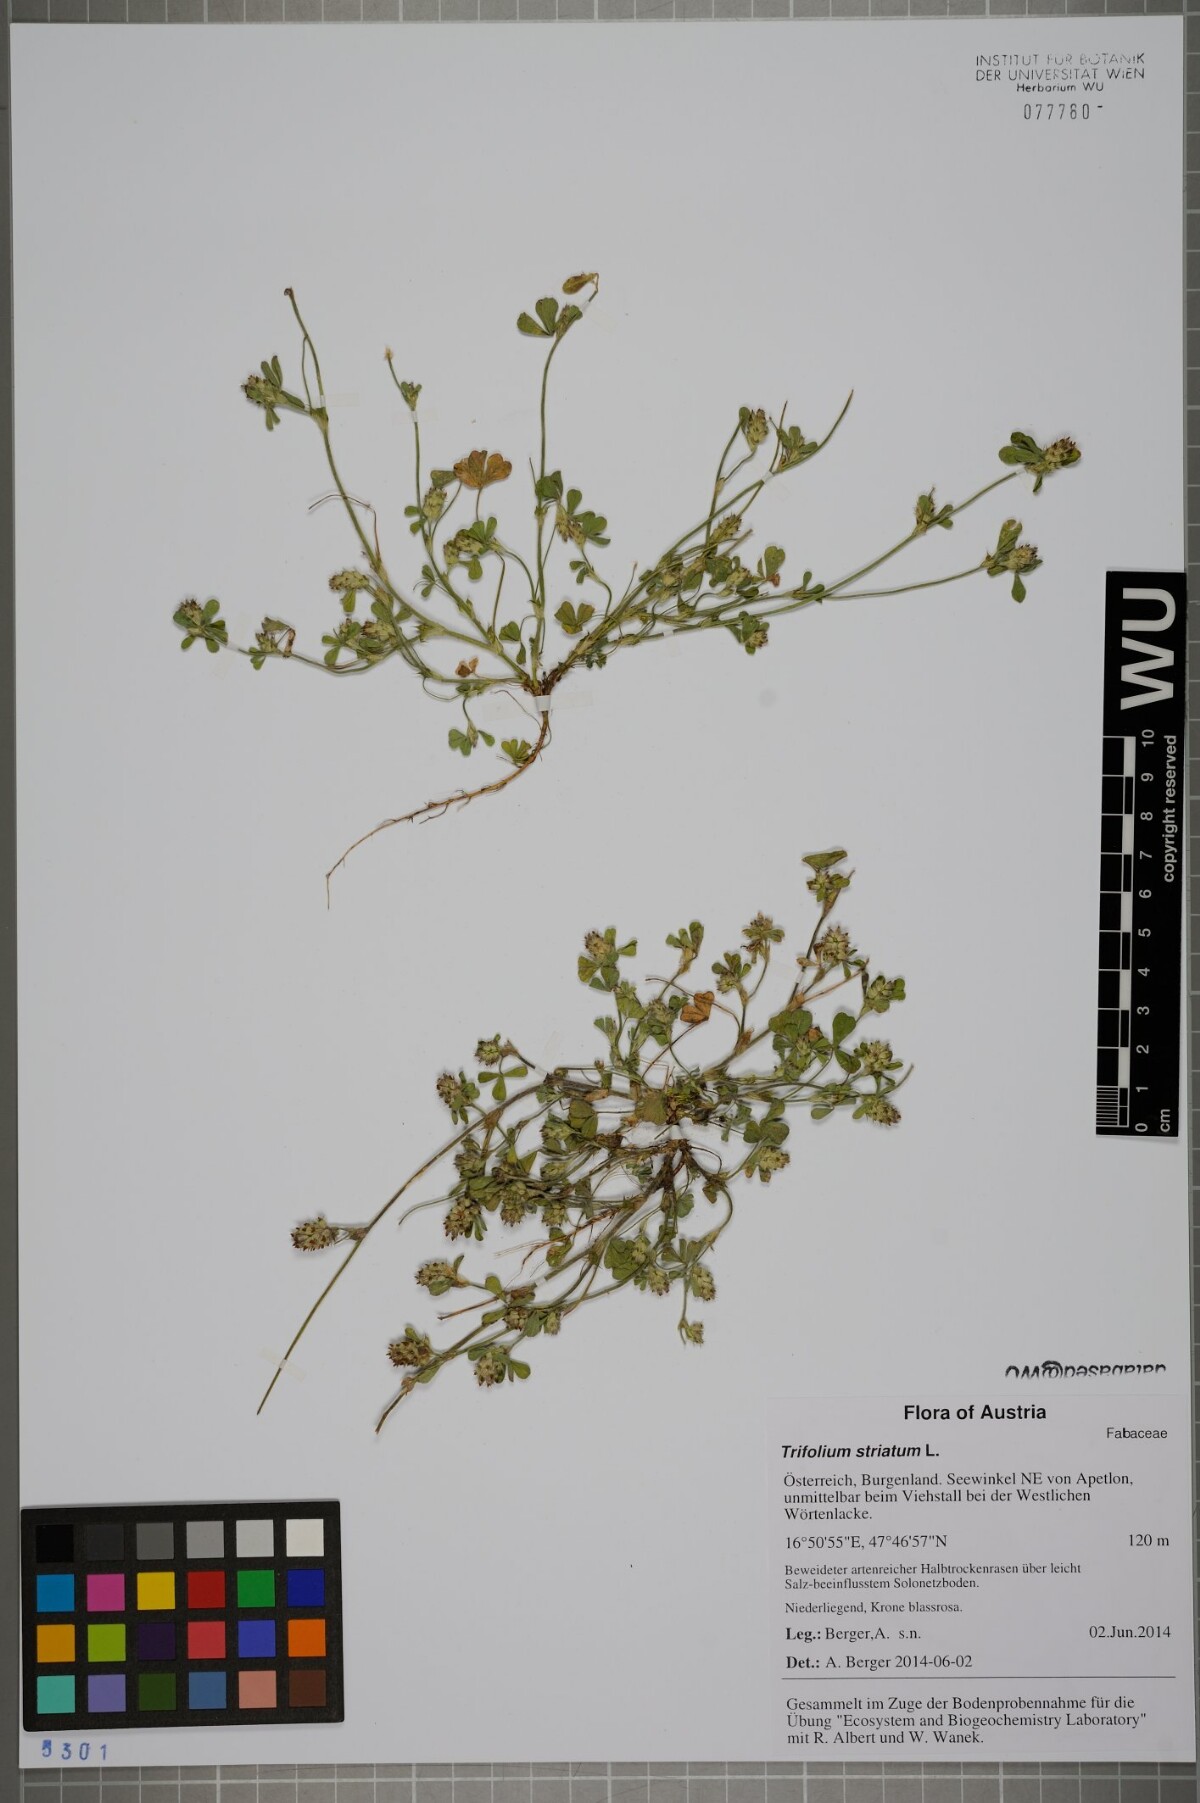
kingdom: Plantae
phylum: Tracheophyta
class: Magnoliopsida
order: Fabales
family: Fabaceae
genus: Trifolium
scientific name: Trifolium striatum
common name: Knotted clover
